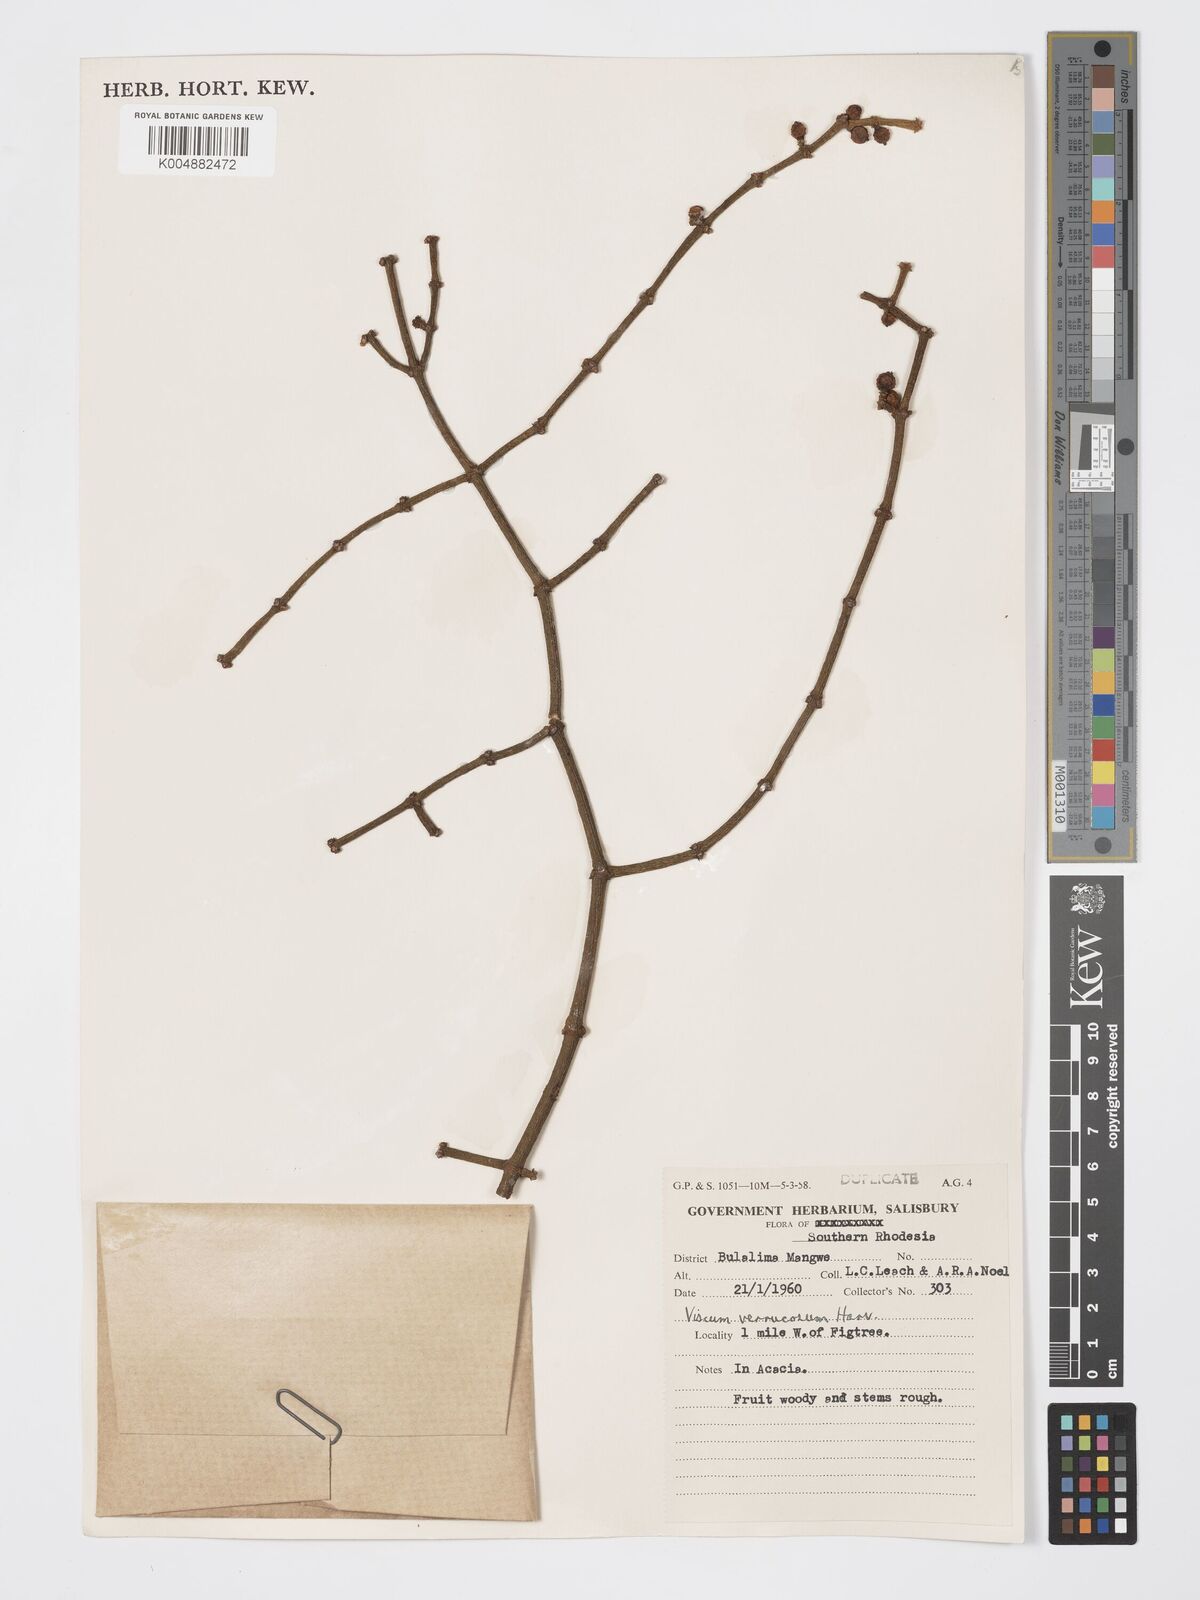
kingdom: Plantae
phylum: Tracheophyta
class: Magnoliopsida
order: Santalales
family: Viscaceae
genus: Viscum
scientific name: Viscum verrucosum
